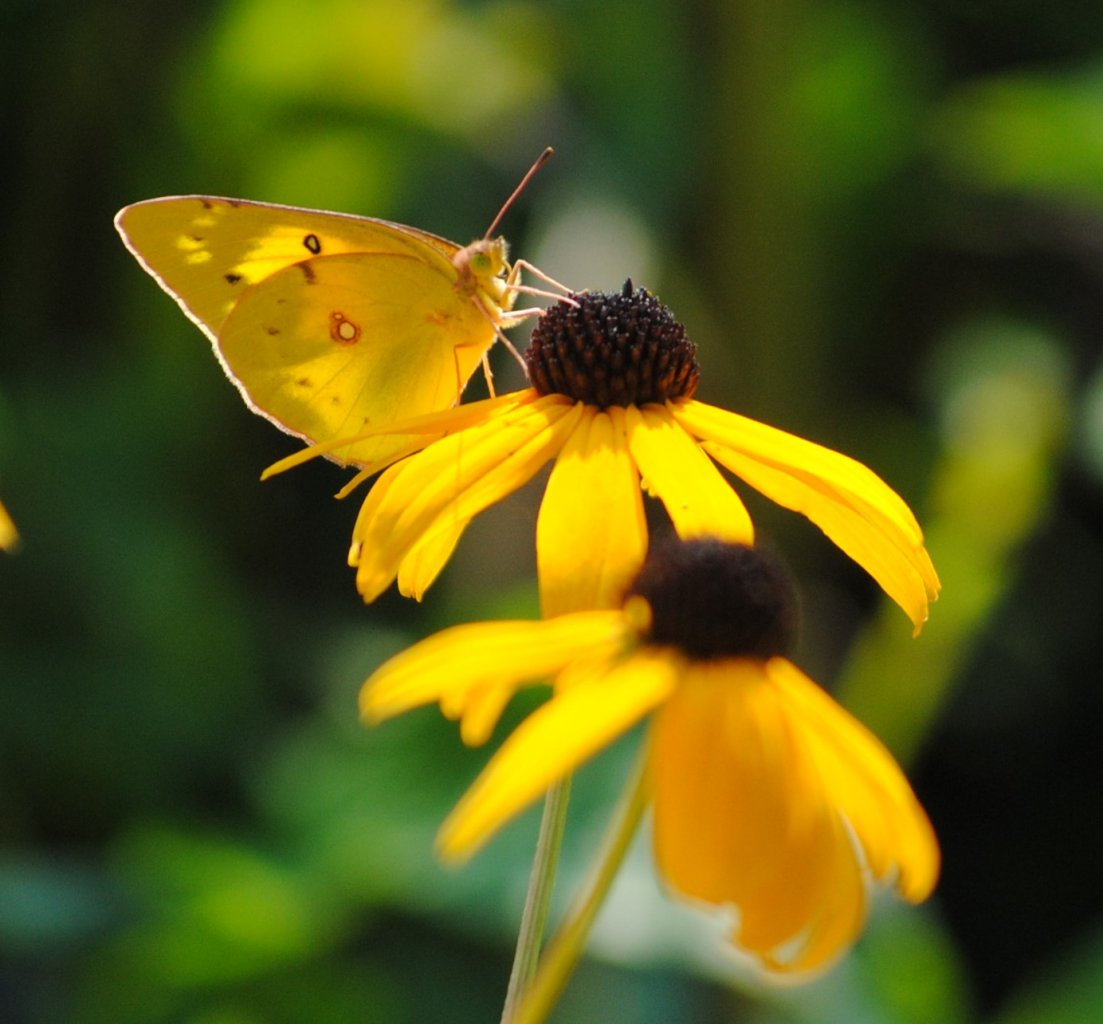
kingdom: Animalia
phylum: Arthropoda
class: Insecta
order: Lepidoptera
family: Pieridae
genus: Colias
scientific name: Colias philodice
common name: Clouded Sulphur
